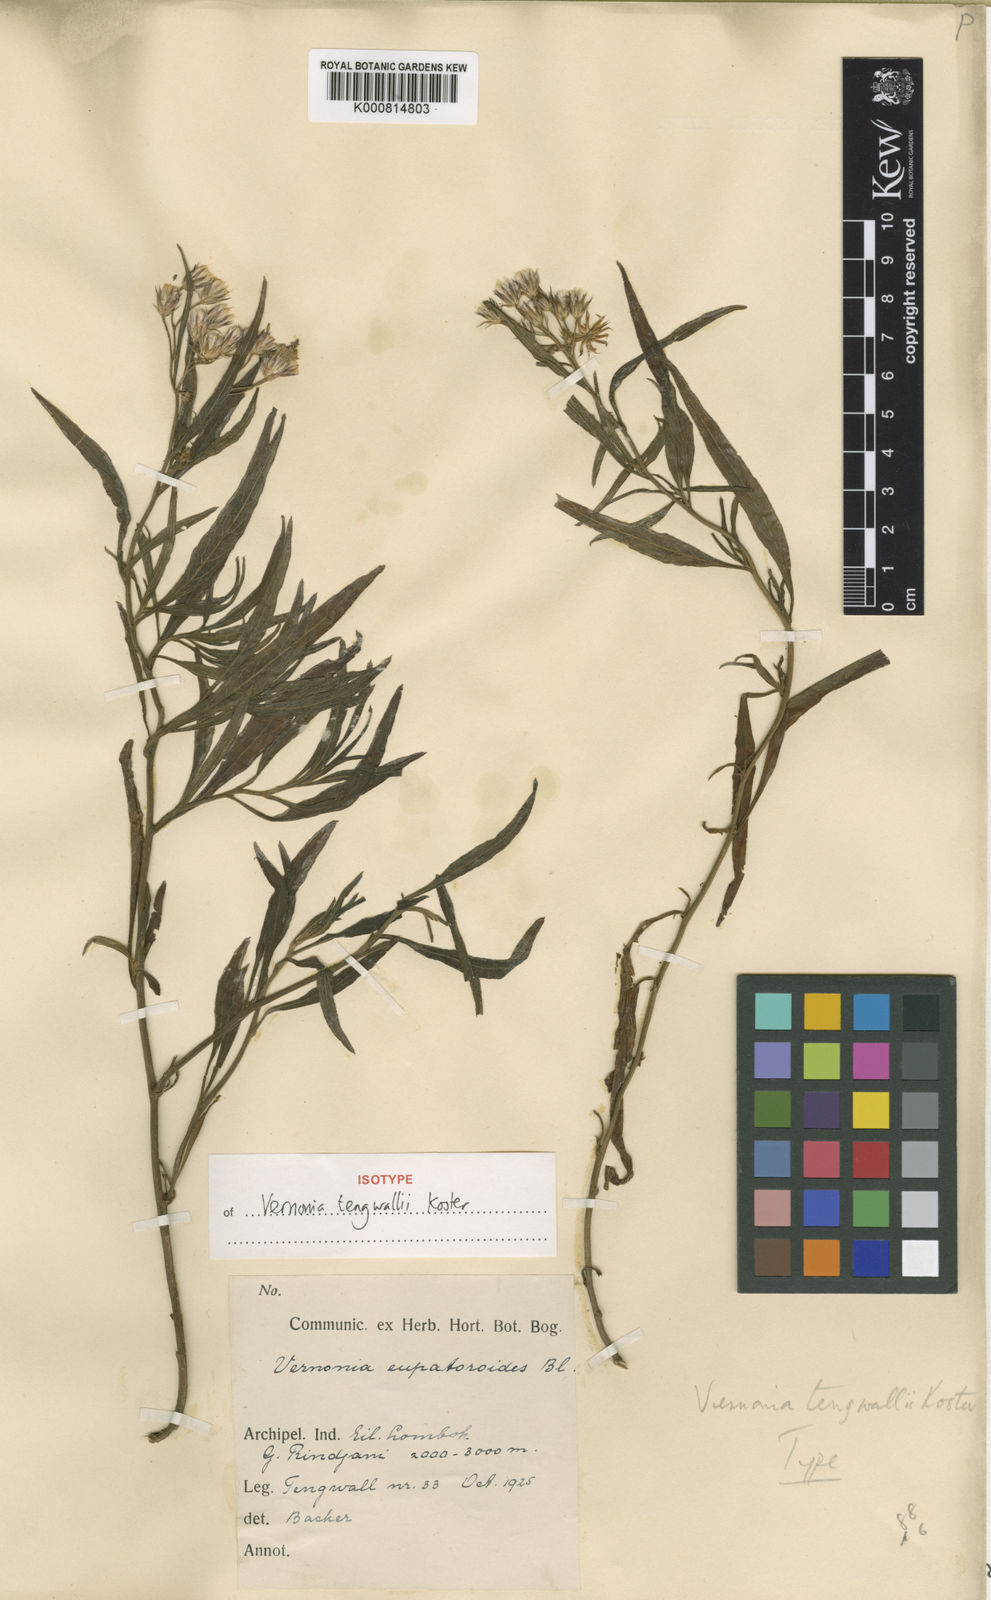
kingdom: Plantae
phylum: Tracheophyta
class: Magnoliopsida
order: Asterales
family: Asteraceae
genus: Vernonia
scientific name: Vernonia tengwallii
